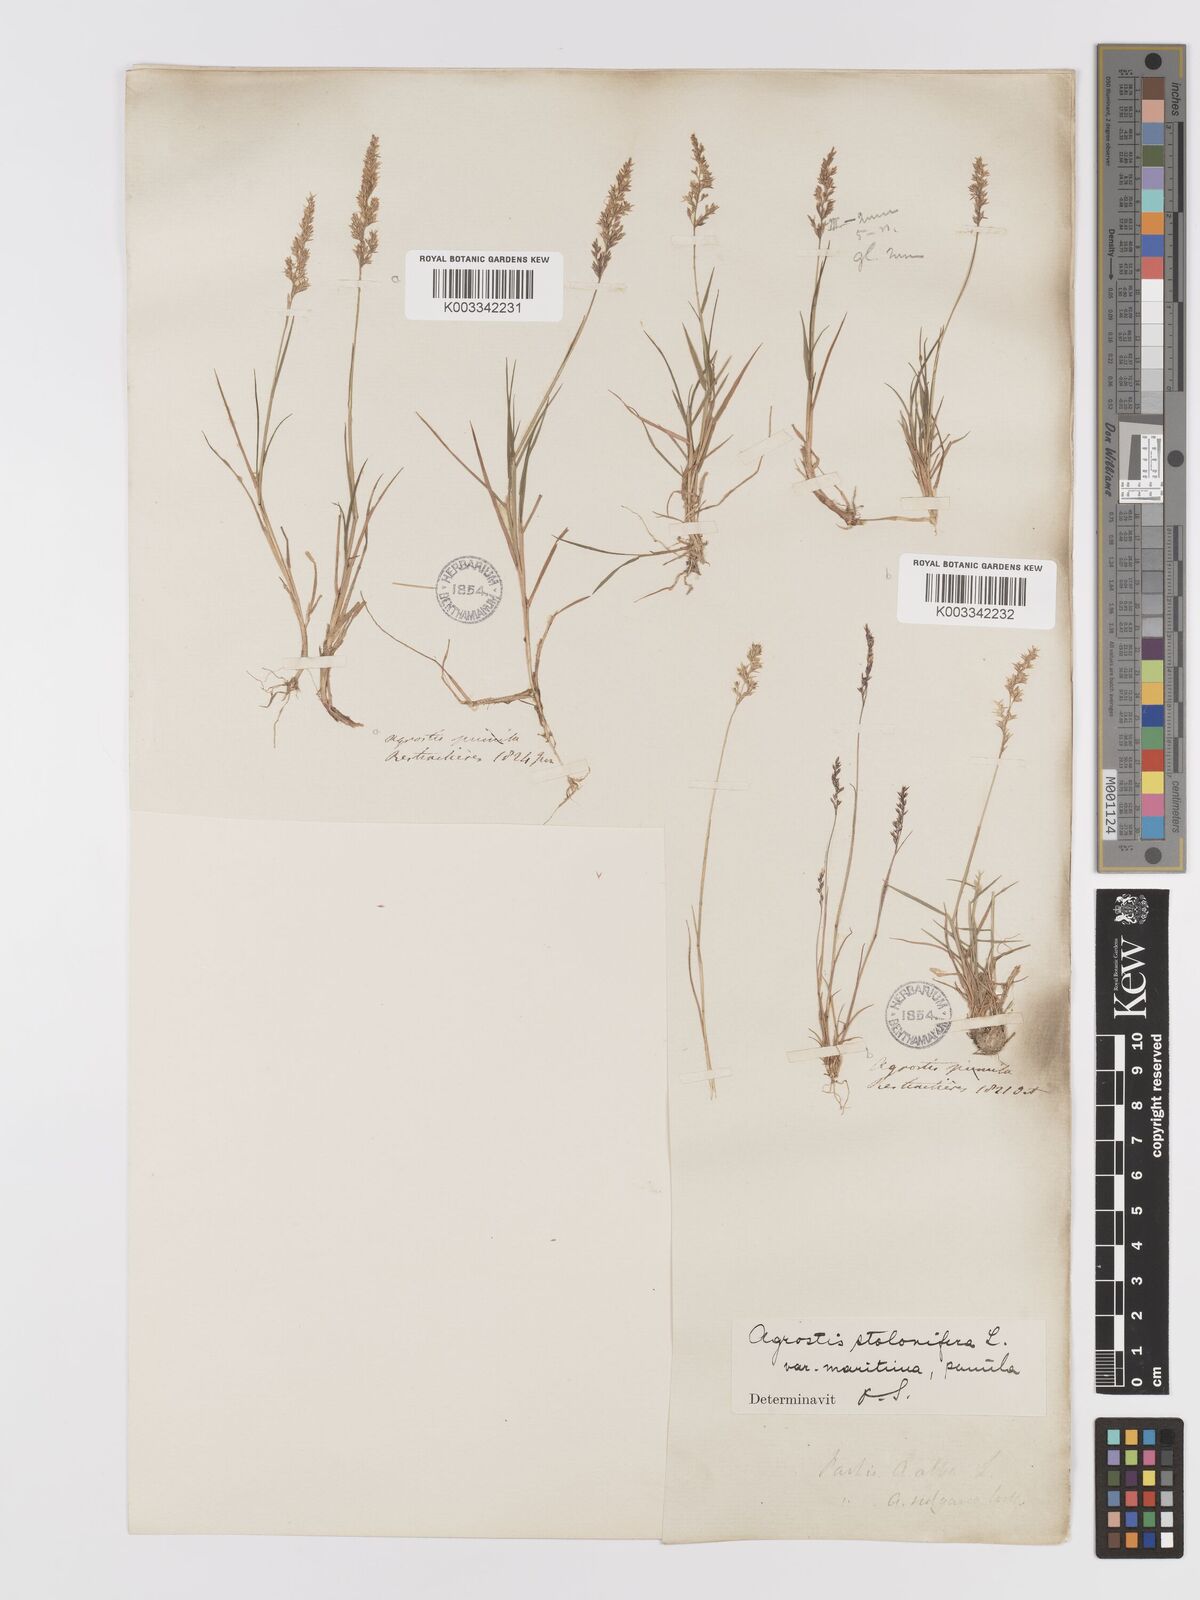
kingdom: Plantae
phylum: Tracheophyta
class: Liliopsida
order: Poales
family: Poaceae
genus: Agrostis
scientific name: Agrostis stolonifera
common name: Creeping bentgrass
